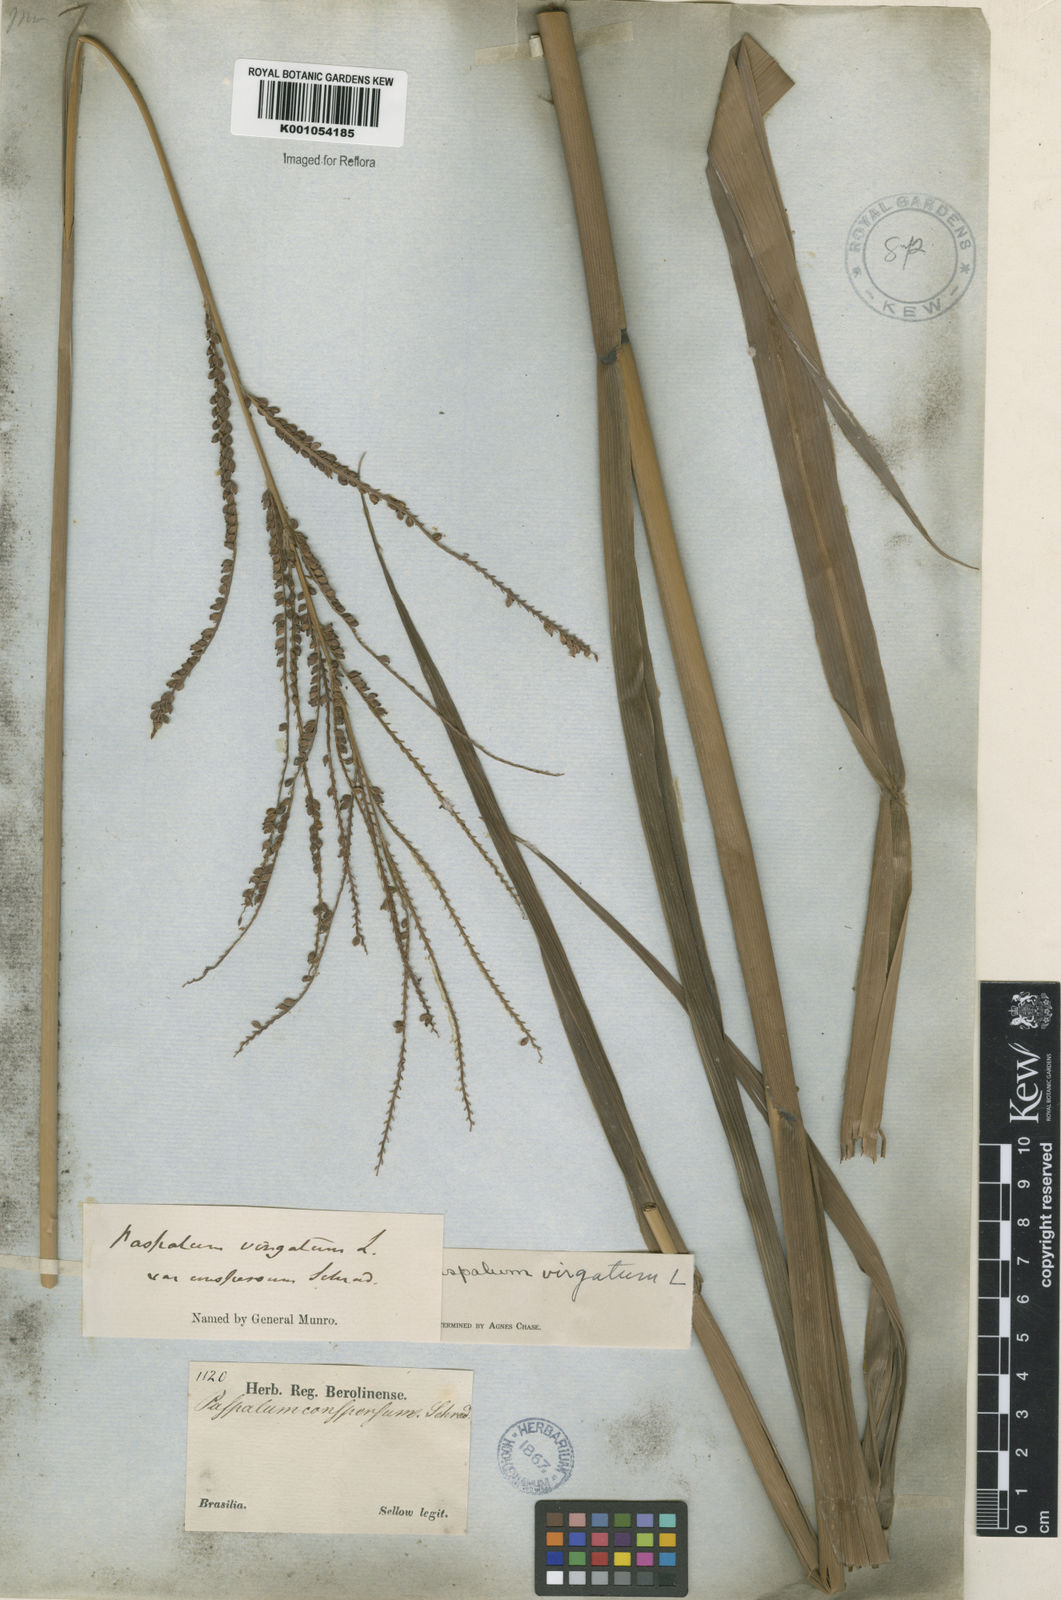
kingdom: Plantae
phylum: Tracheophyta
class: Liliopsida
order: Poales
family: Poaceae
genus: Paspalum
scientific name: Paspalum virgatum
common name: Talquezal
